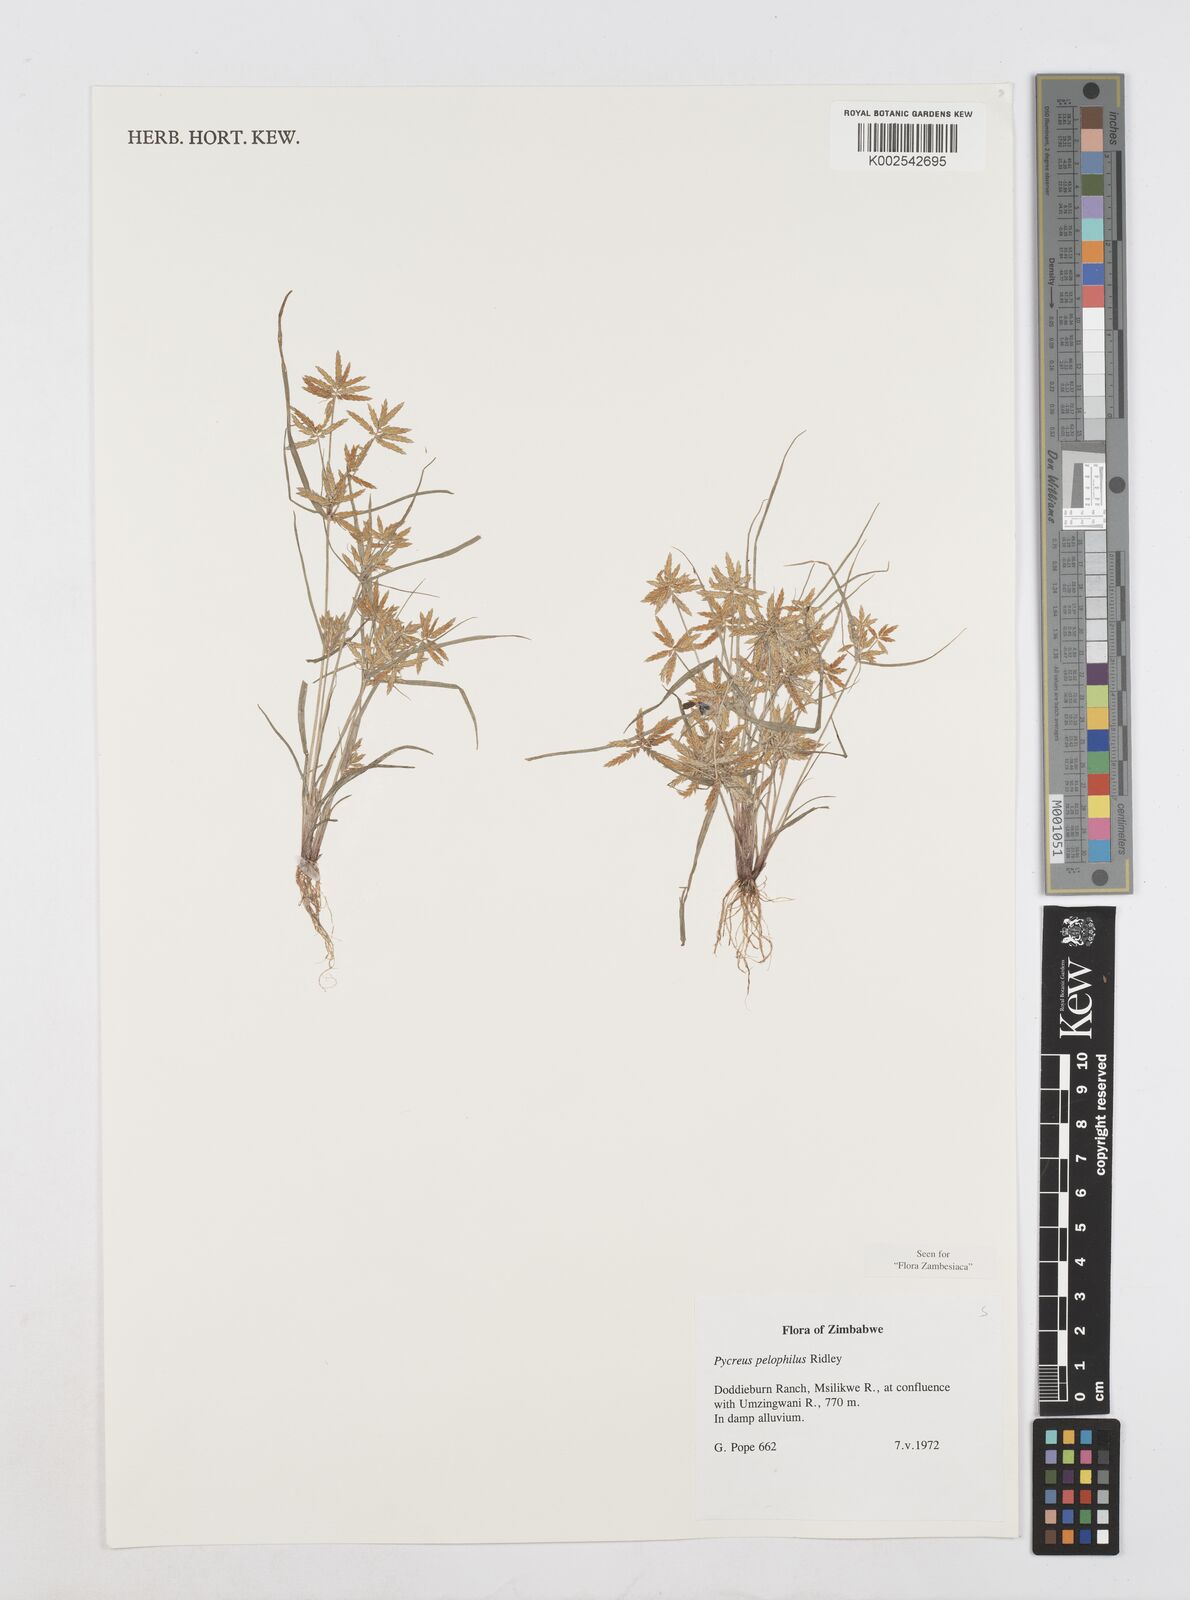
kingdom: Plantae
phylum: Tracheophyta
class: Liliopsida
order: Poales
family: Cyperaceae
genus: Cyperus
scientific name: Cyperus pelophilus
